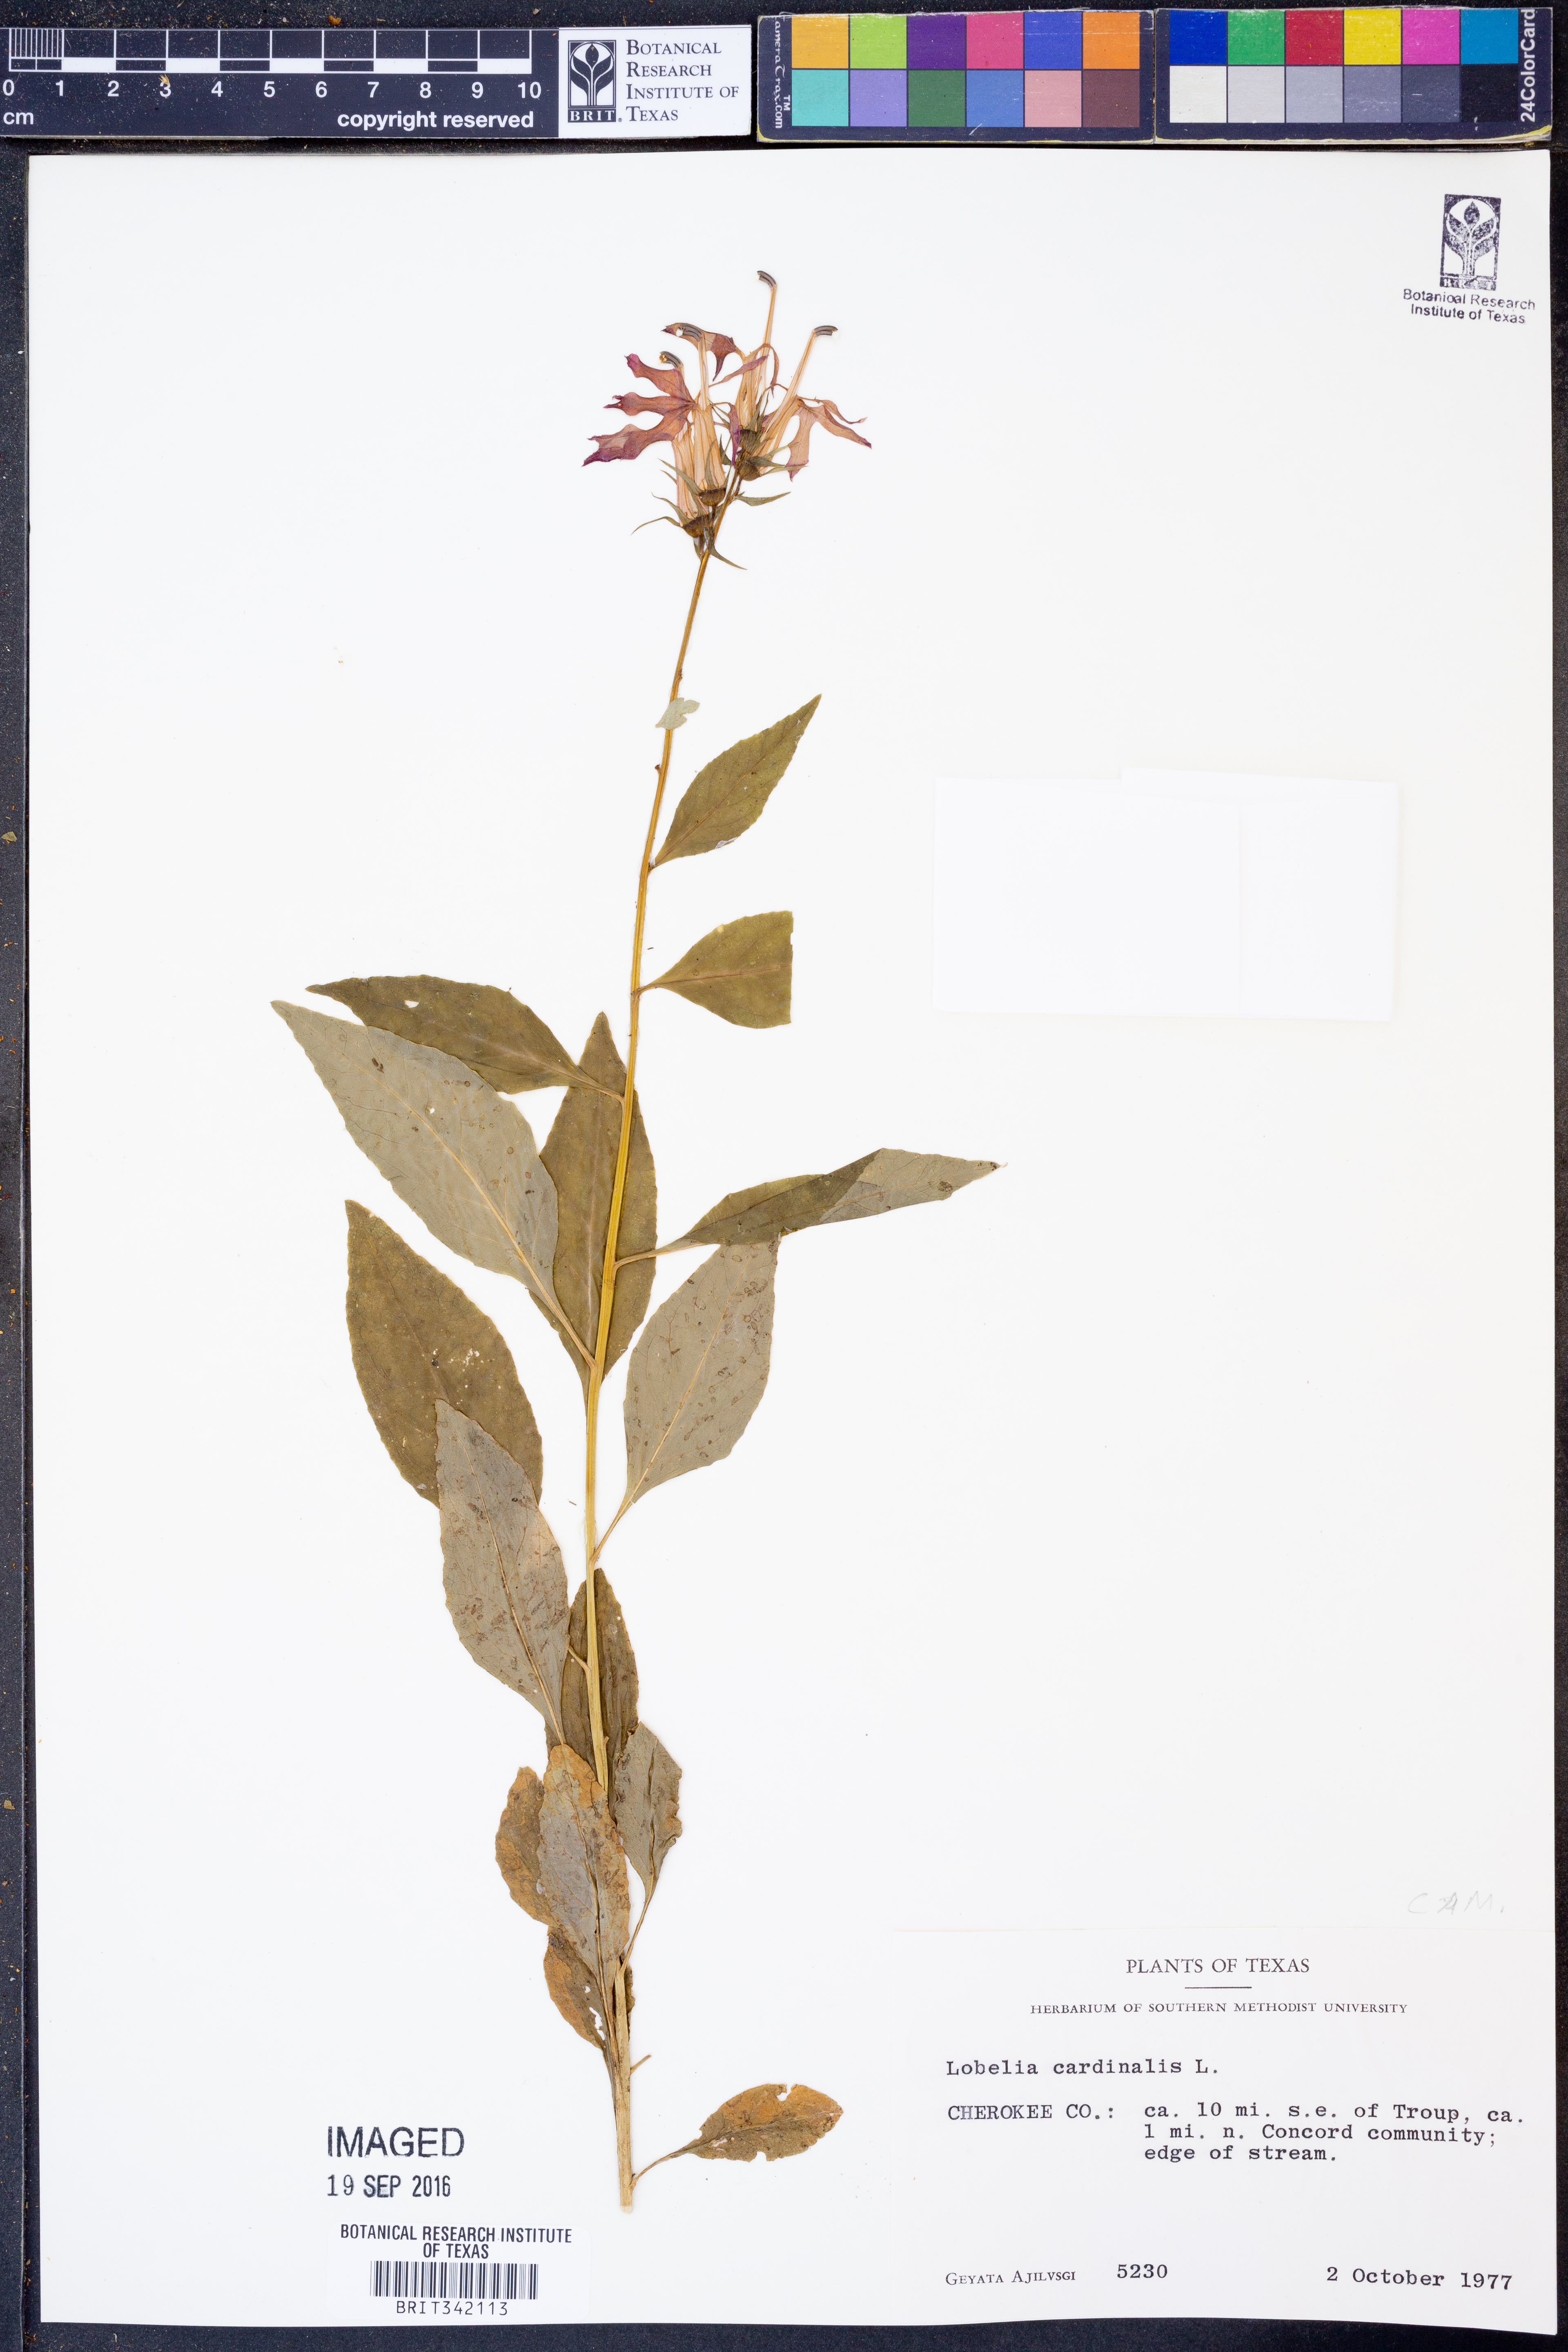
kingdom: Plantae
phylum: Tracheophyta
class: Magnoliopsida
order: Asterales
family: Campanulaceae
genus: Lobelia
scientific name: Lobelia cardinalis
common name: Cardinal flower
